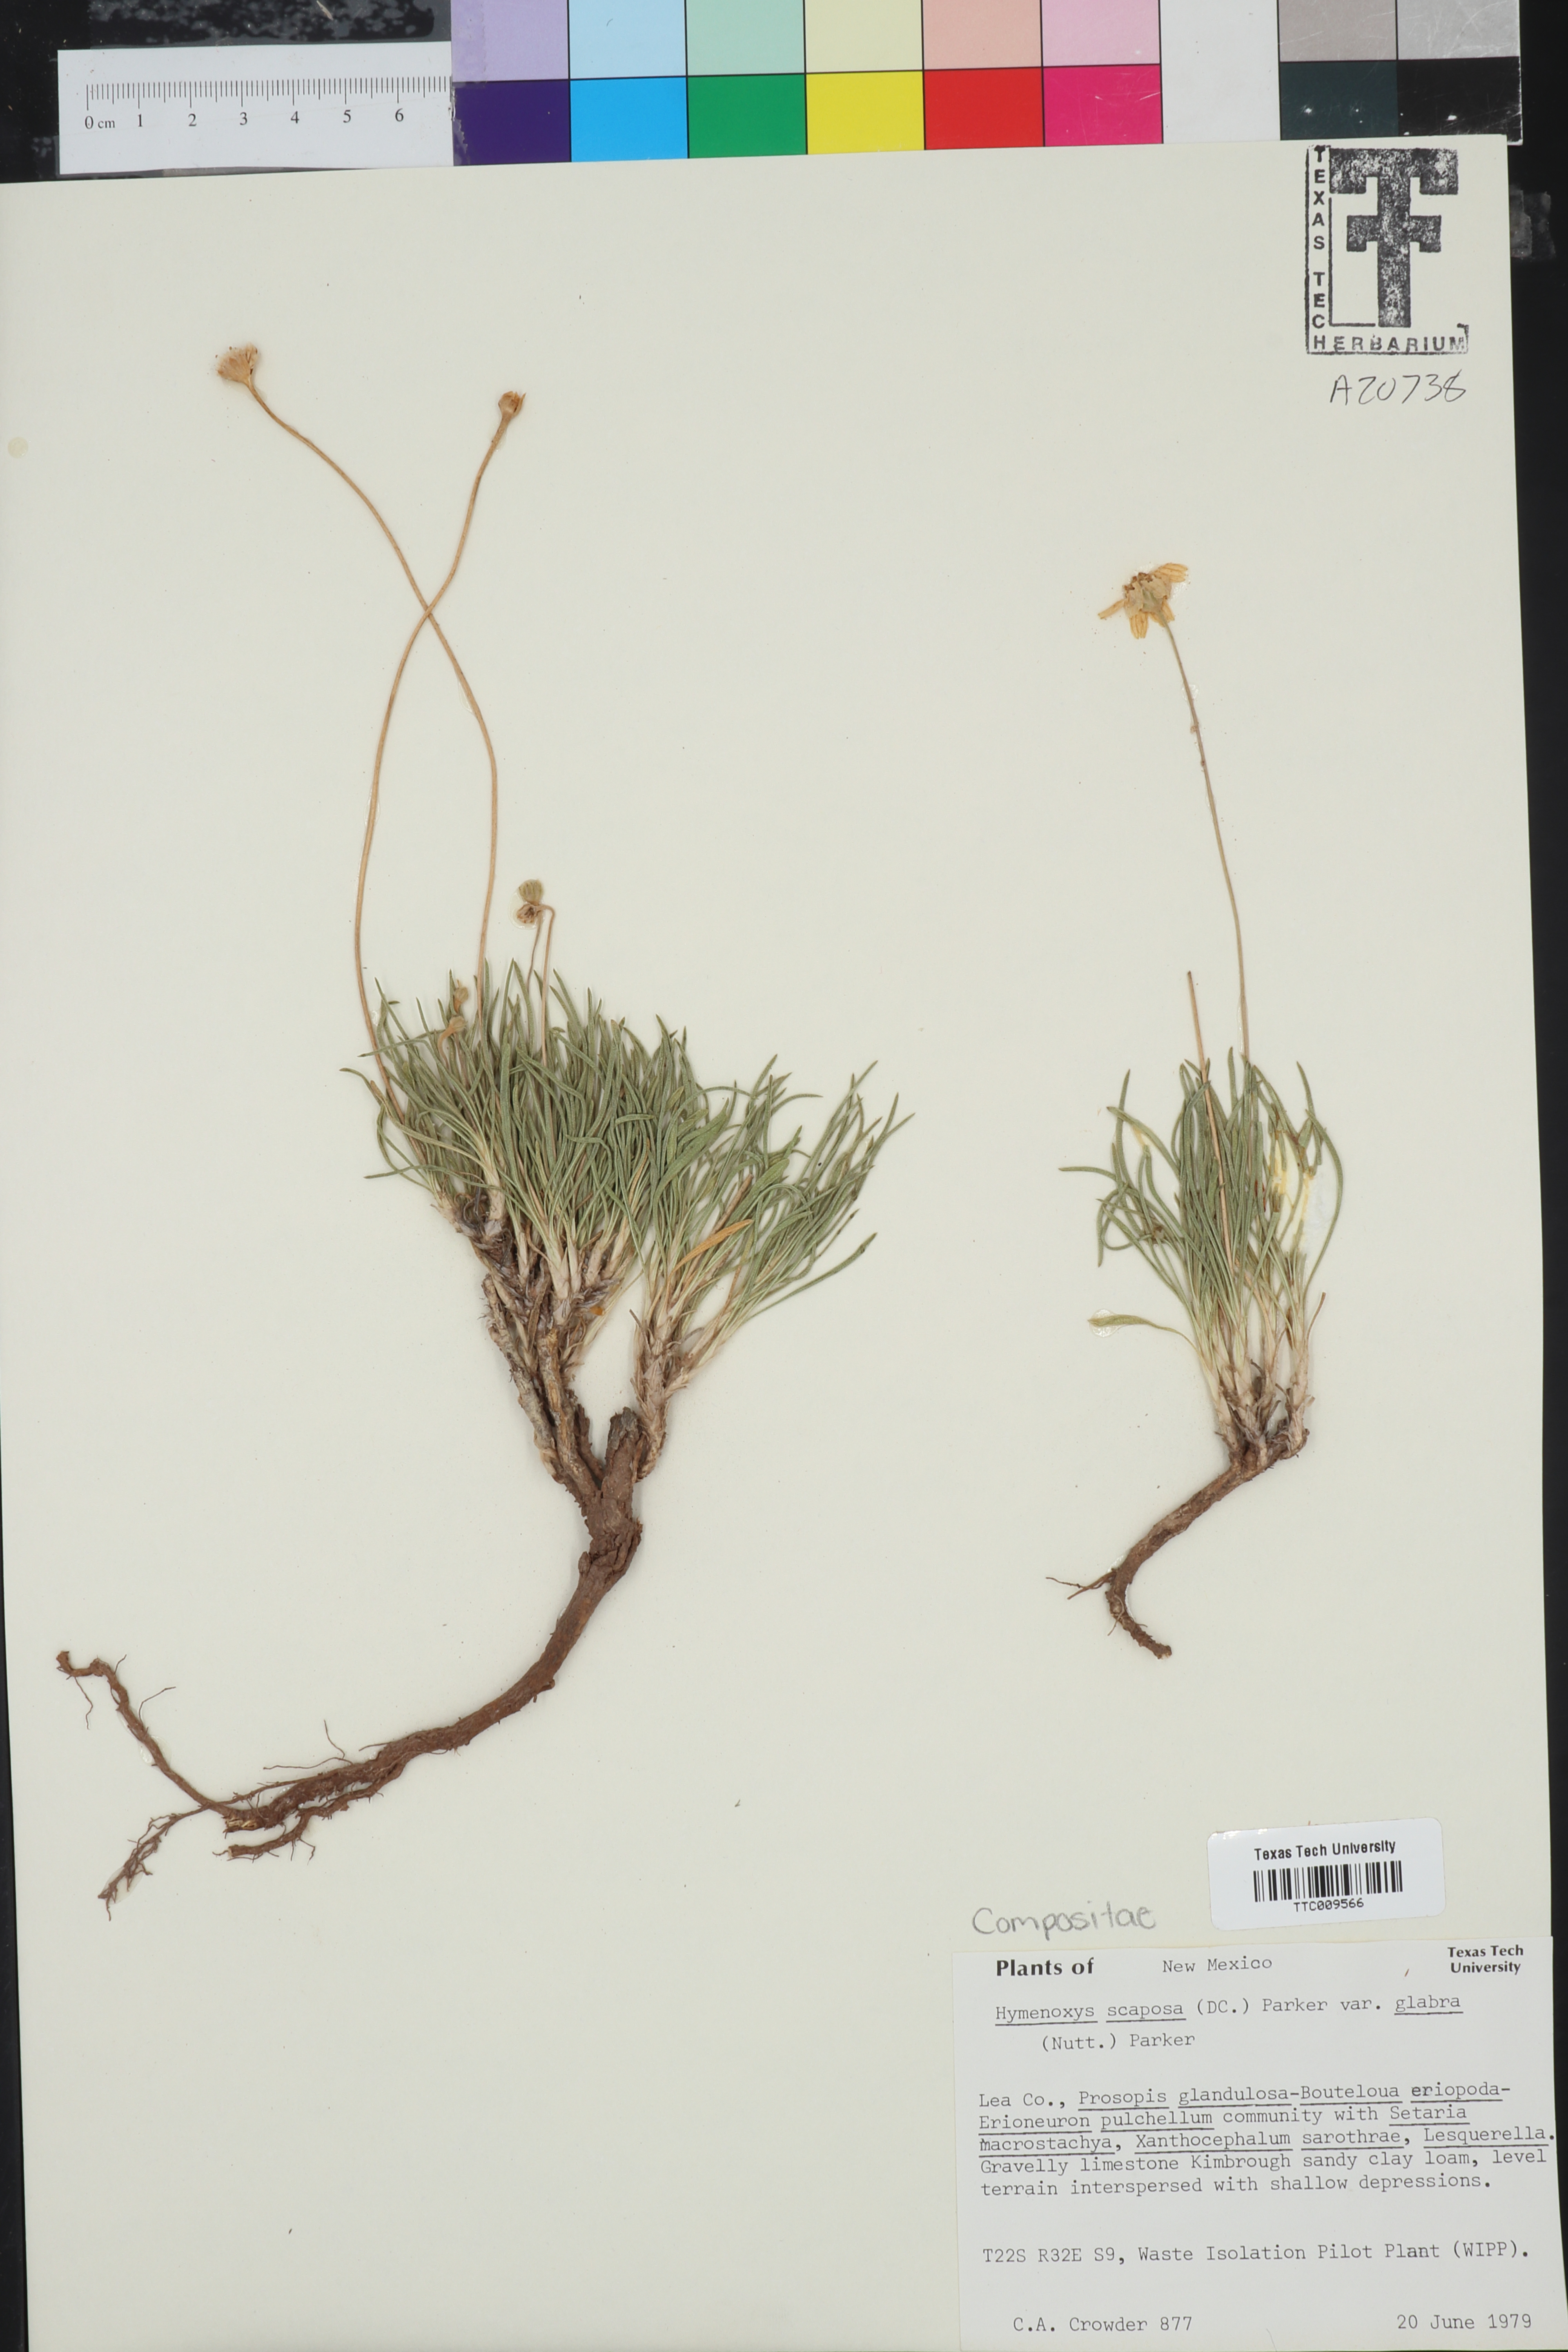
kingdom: Plantae
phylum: Tracheophyta
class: Magnoliopsida
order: Asterales
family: Asteraceae
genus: Tetraneuris
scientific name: Tetraneuris scaposa
